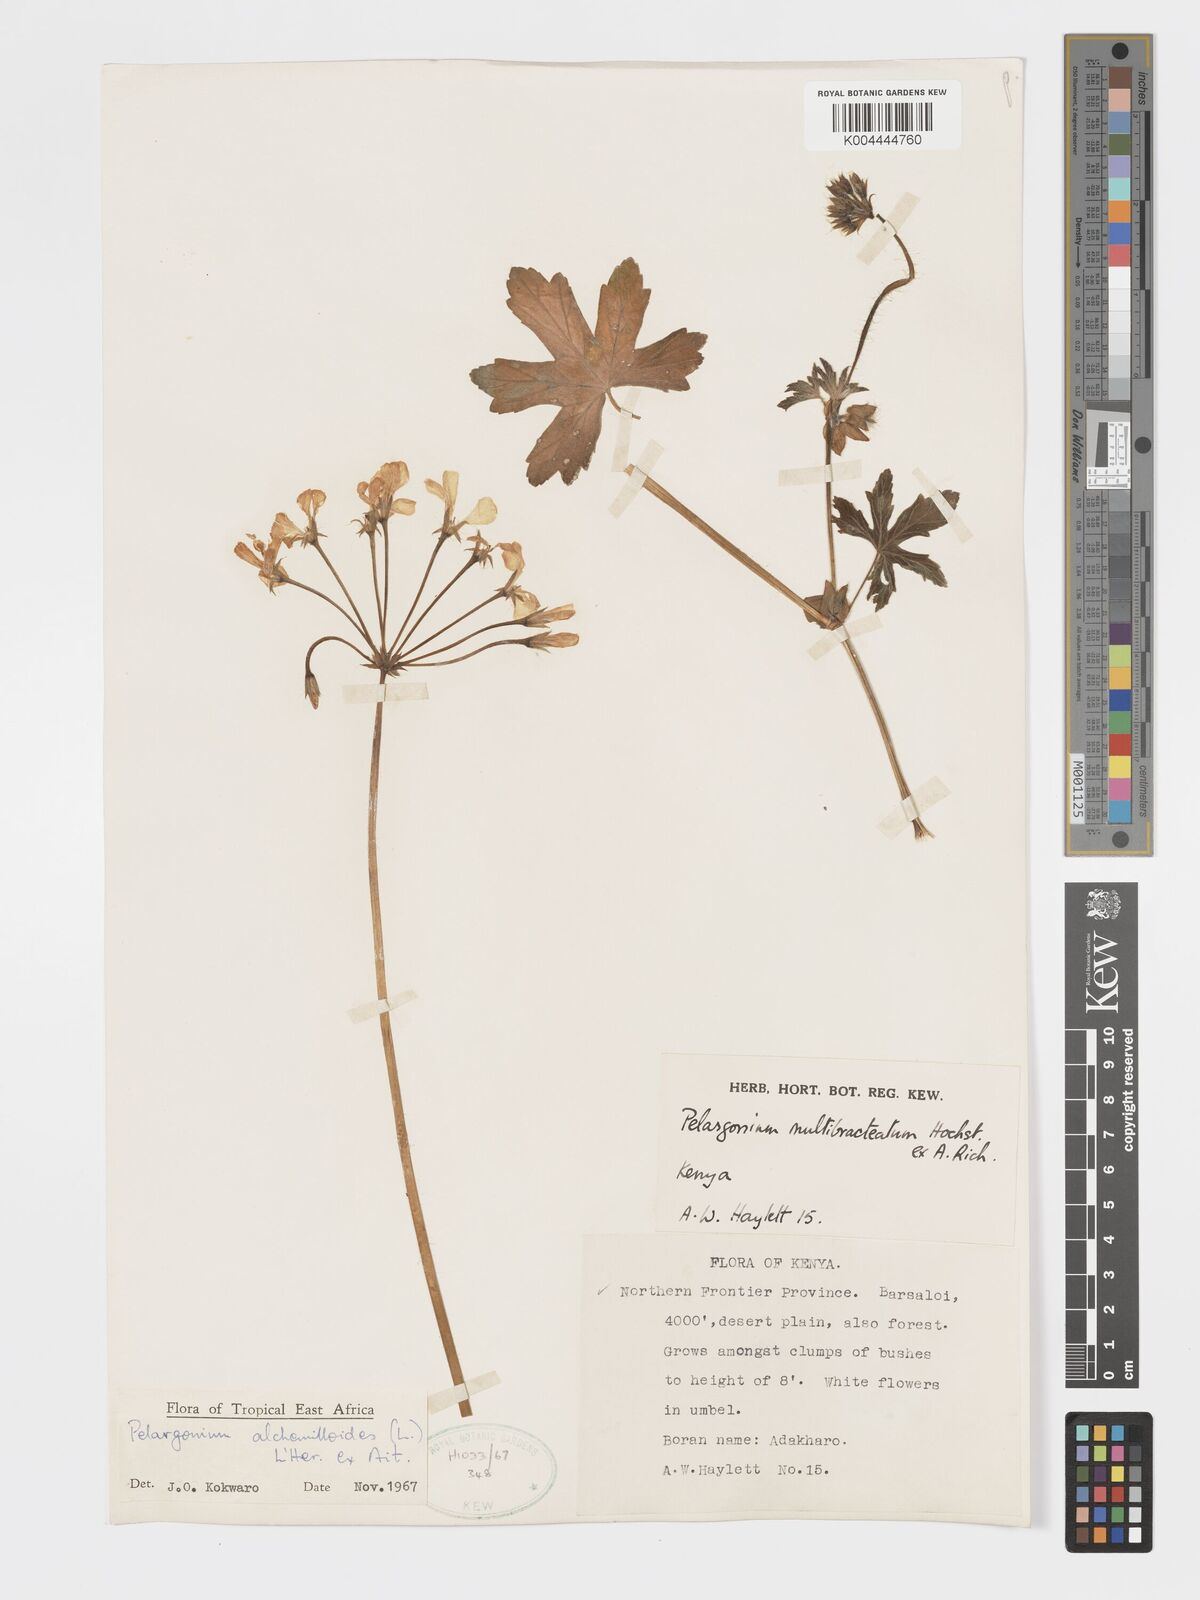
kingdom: Plantae
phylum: Tracheophyta
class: Magnoliopsida
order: Geraniales
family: Geraniaceae
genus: Pelargonium
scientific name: Pelargonium alchemilloides
